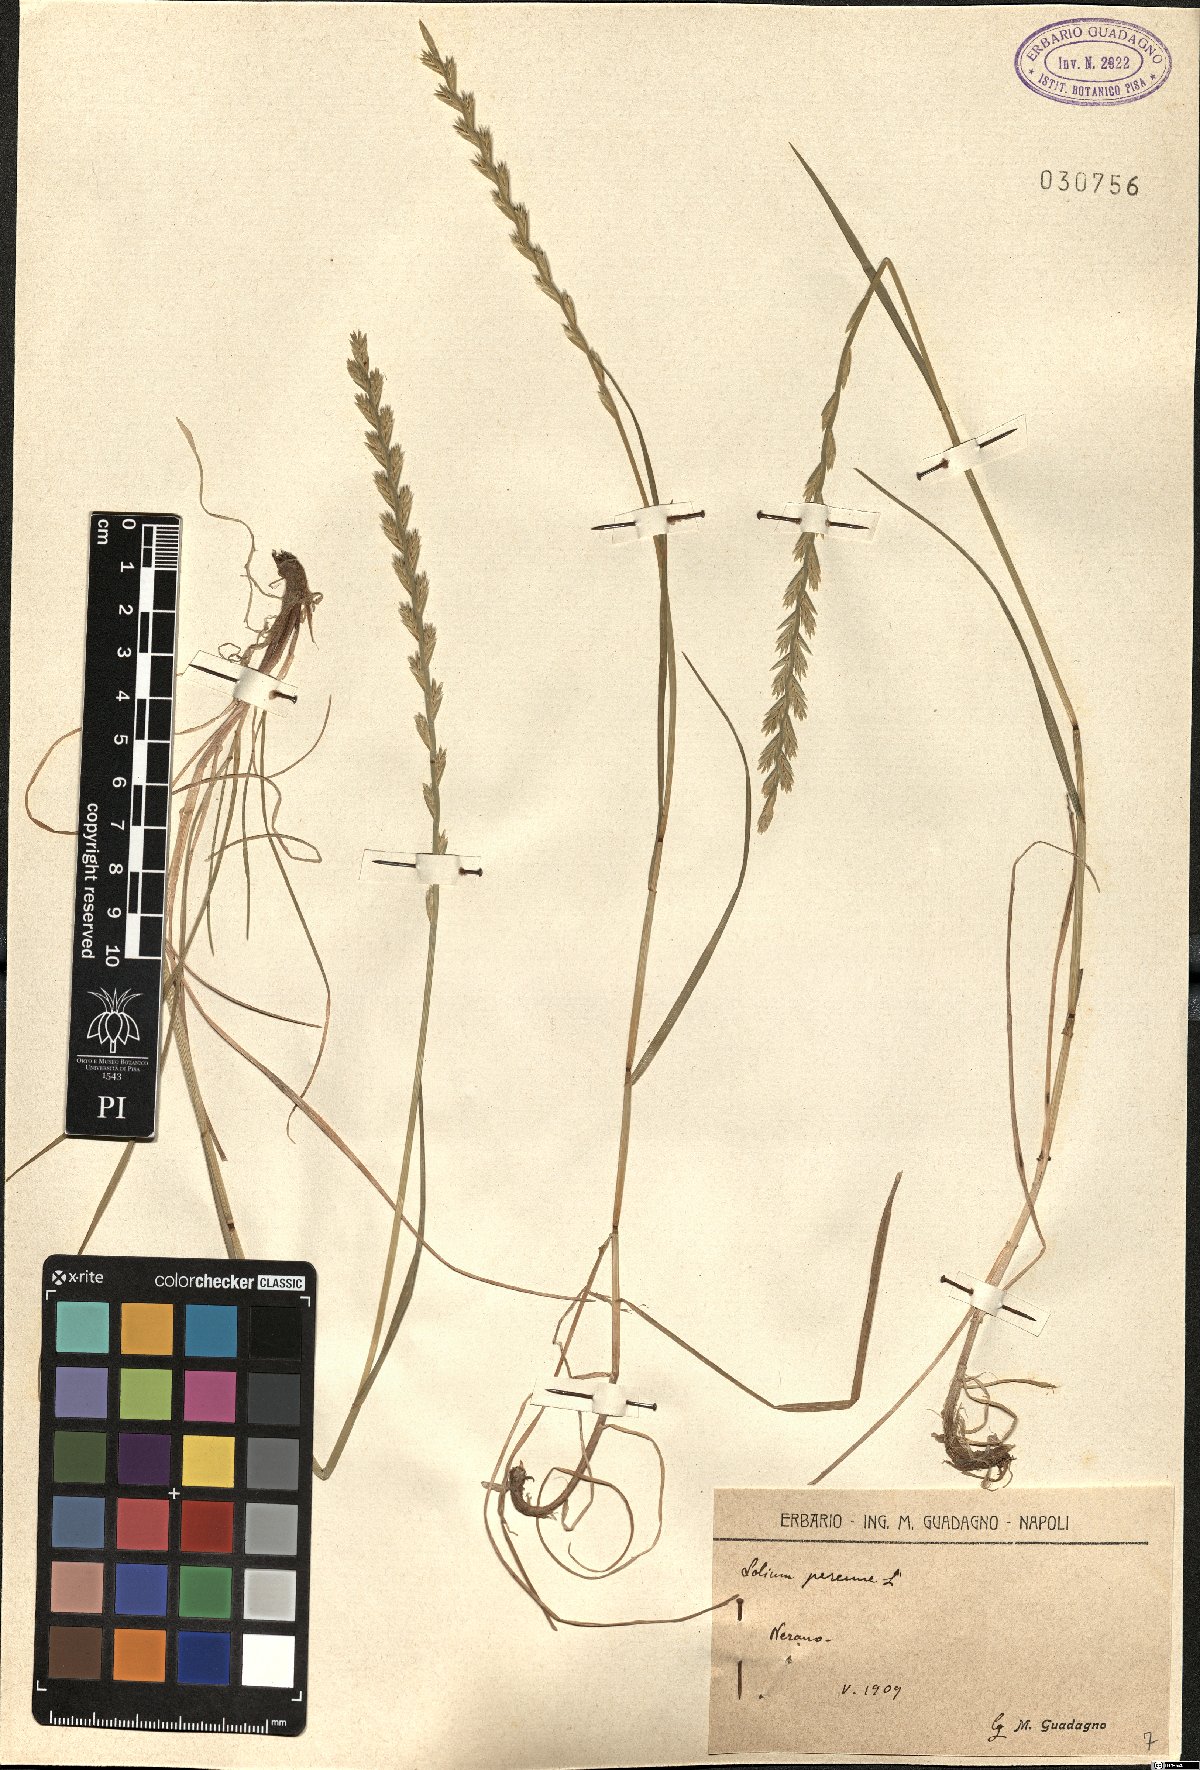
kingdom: Plantae
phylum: Tracheophyta
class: Liliopsida
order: Poales
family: Poaceae
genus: Lolium
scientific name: Lolium perenne
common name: Perennial ryegrass
